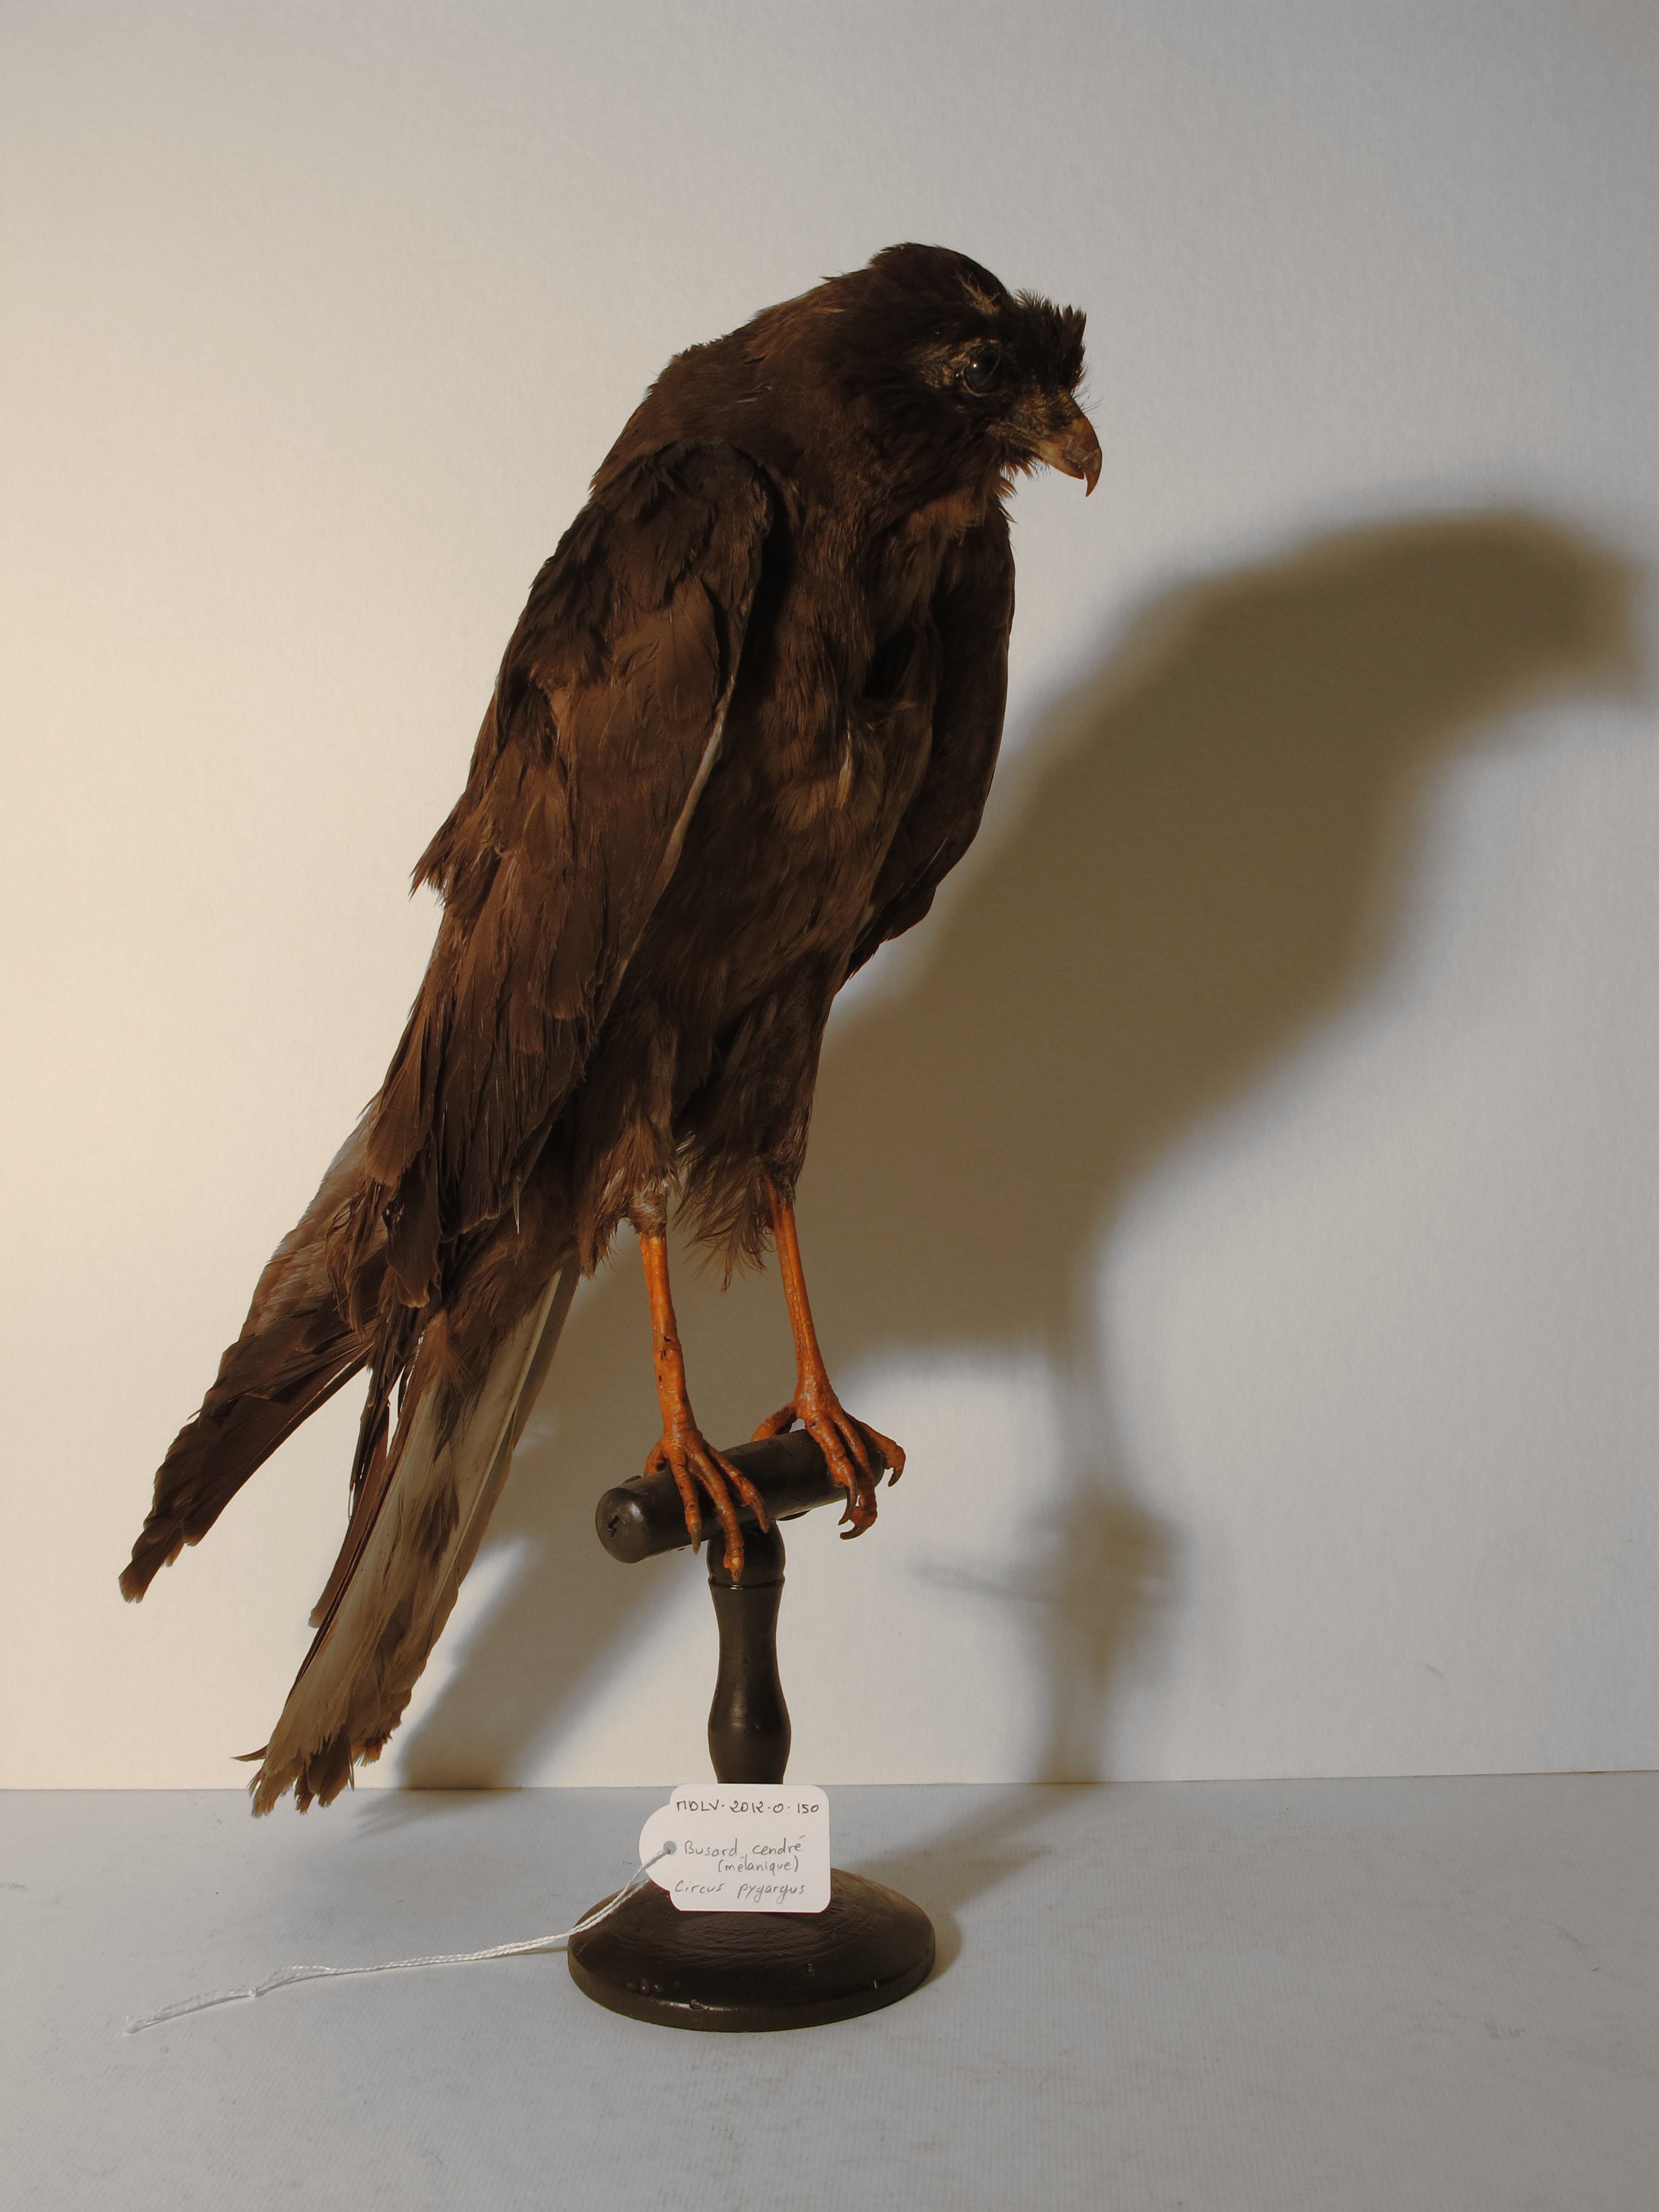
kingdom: Animalia
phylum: Chordata
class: Aves
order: Accipitriformes
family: Accipitridae
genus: Circus
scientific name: Circus pygargus
